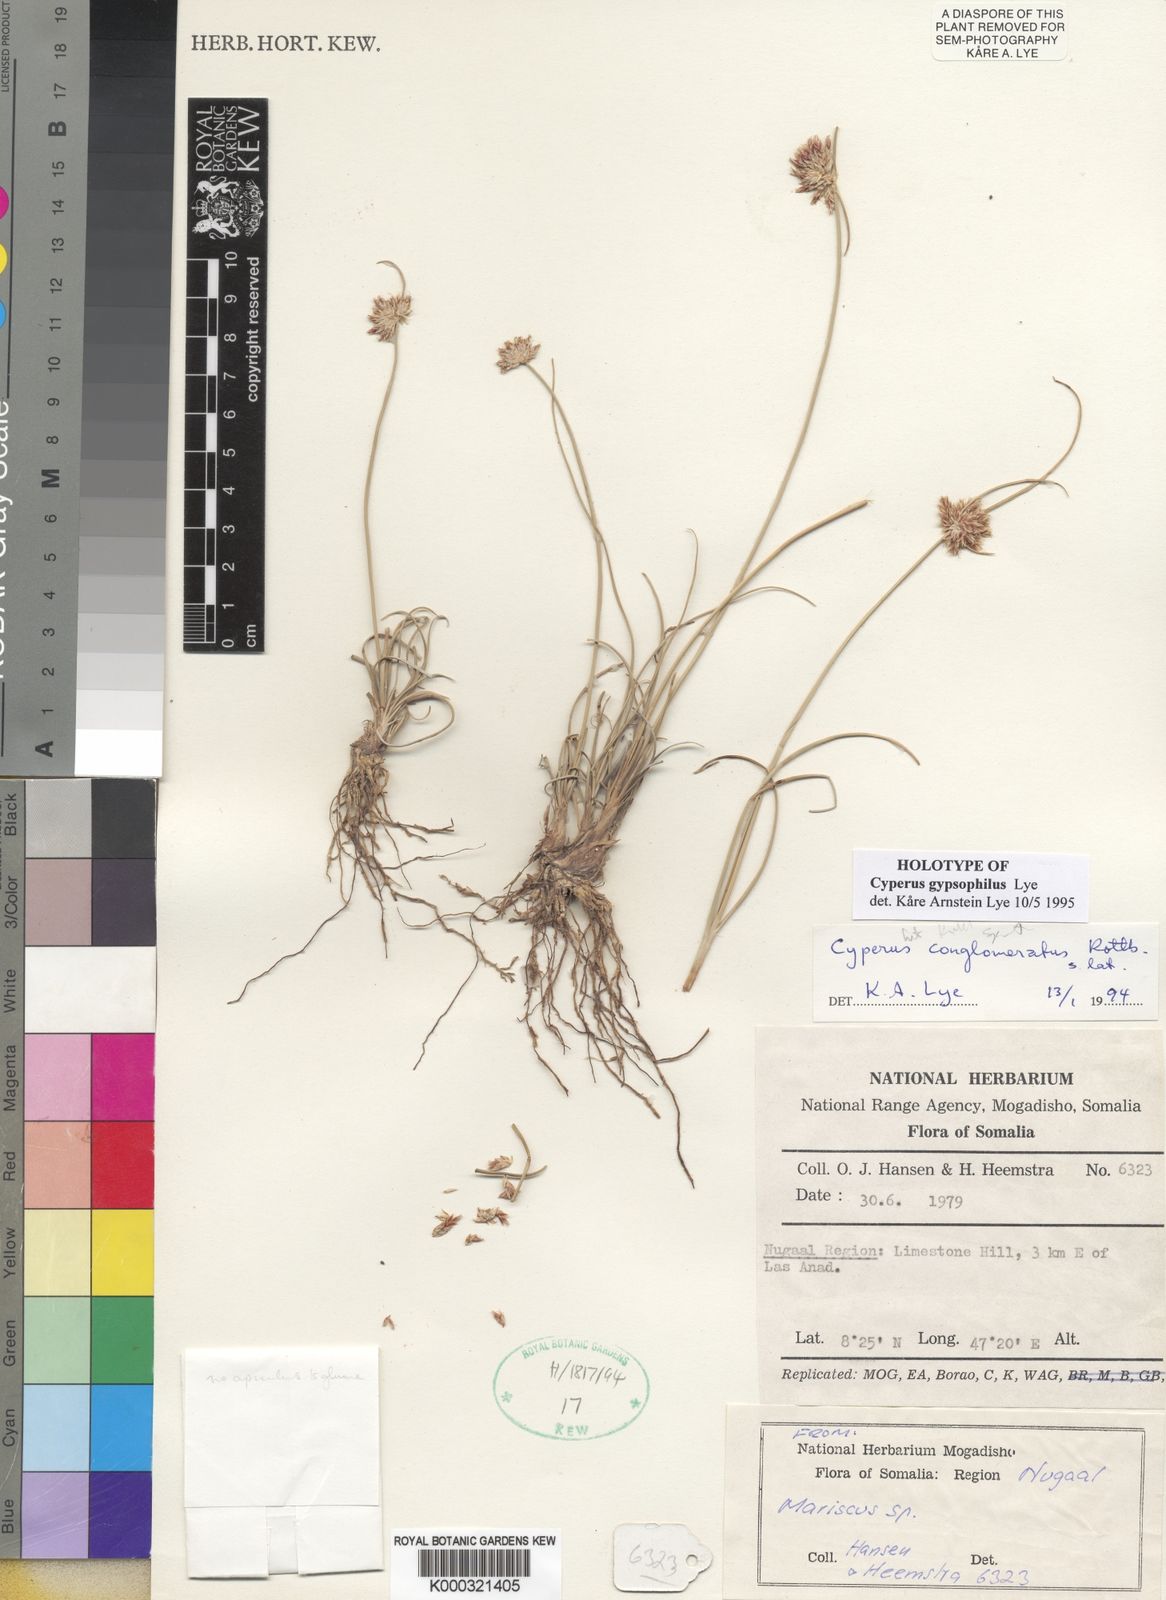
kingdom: Plantae
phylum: Tracheophyta
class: Liliopsida
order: Poales
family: Cyperaceae
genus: Cyperus
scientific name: Cyperus gypsophilus
